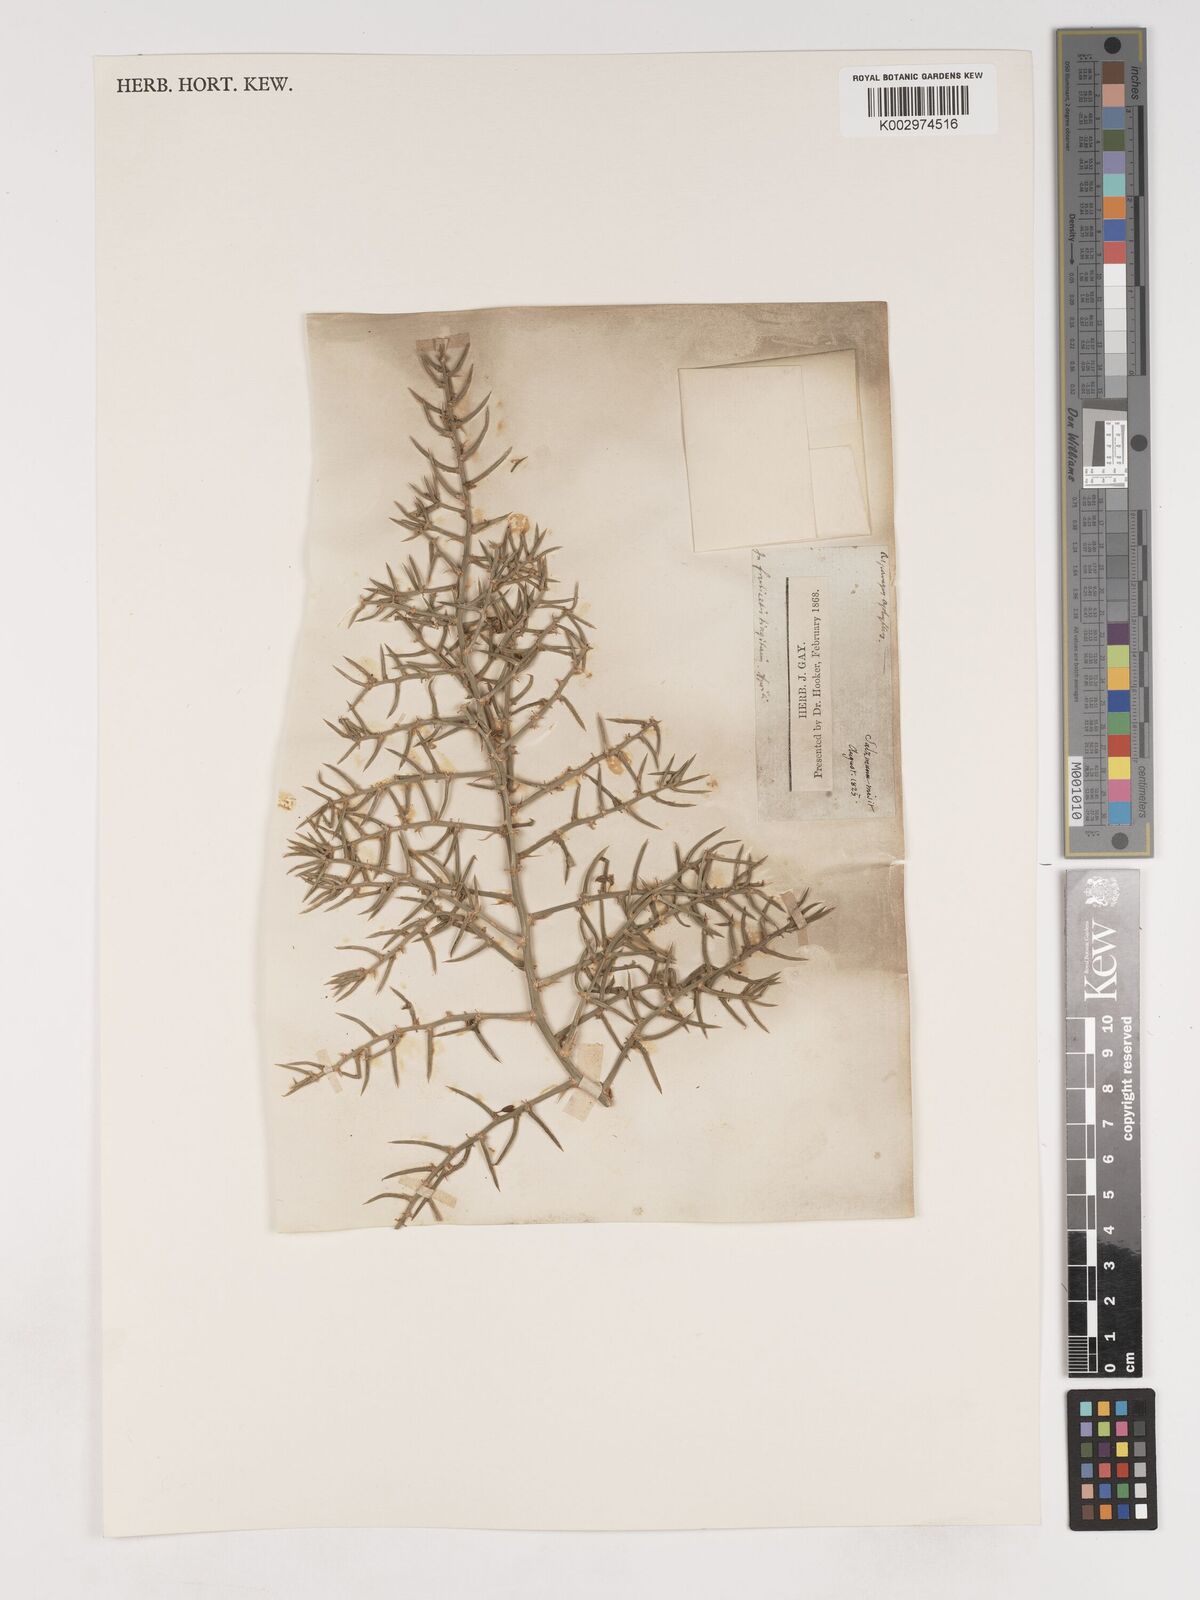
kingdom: Plantae
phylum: Tracheophyta
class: Liliopsida
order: Asparagales
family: Asparagaceae
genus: Asparagus
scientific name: Asparagus horridus
